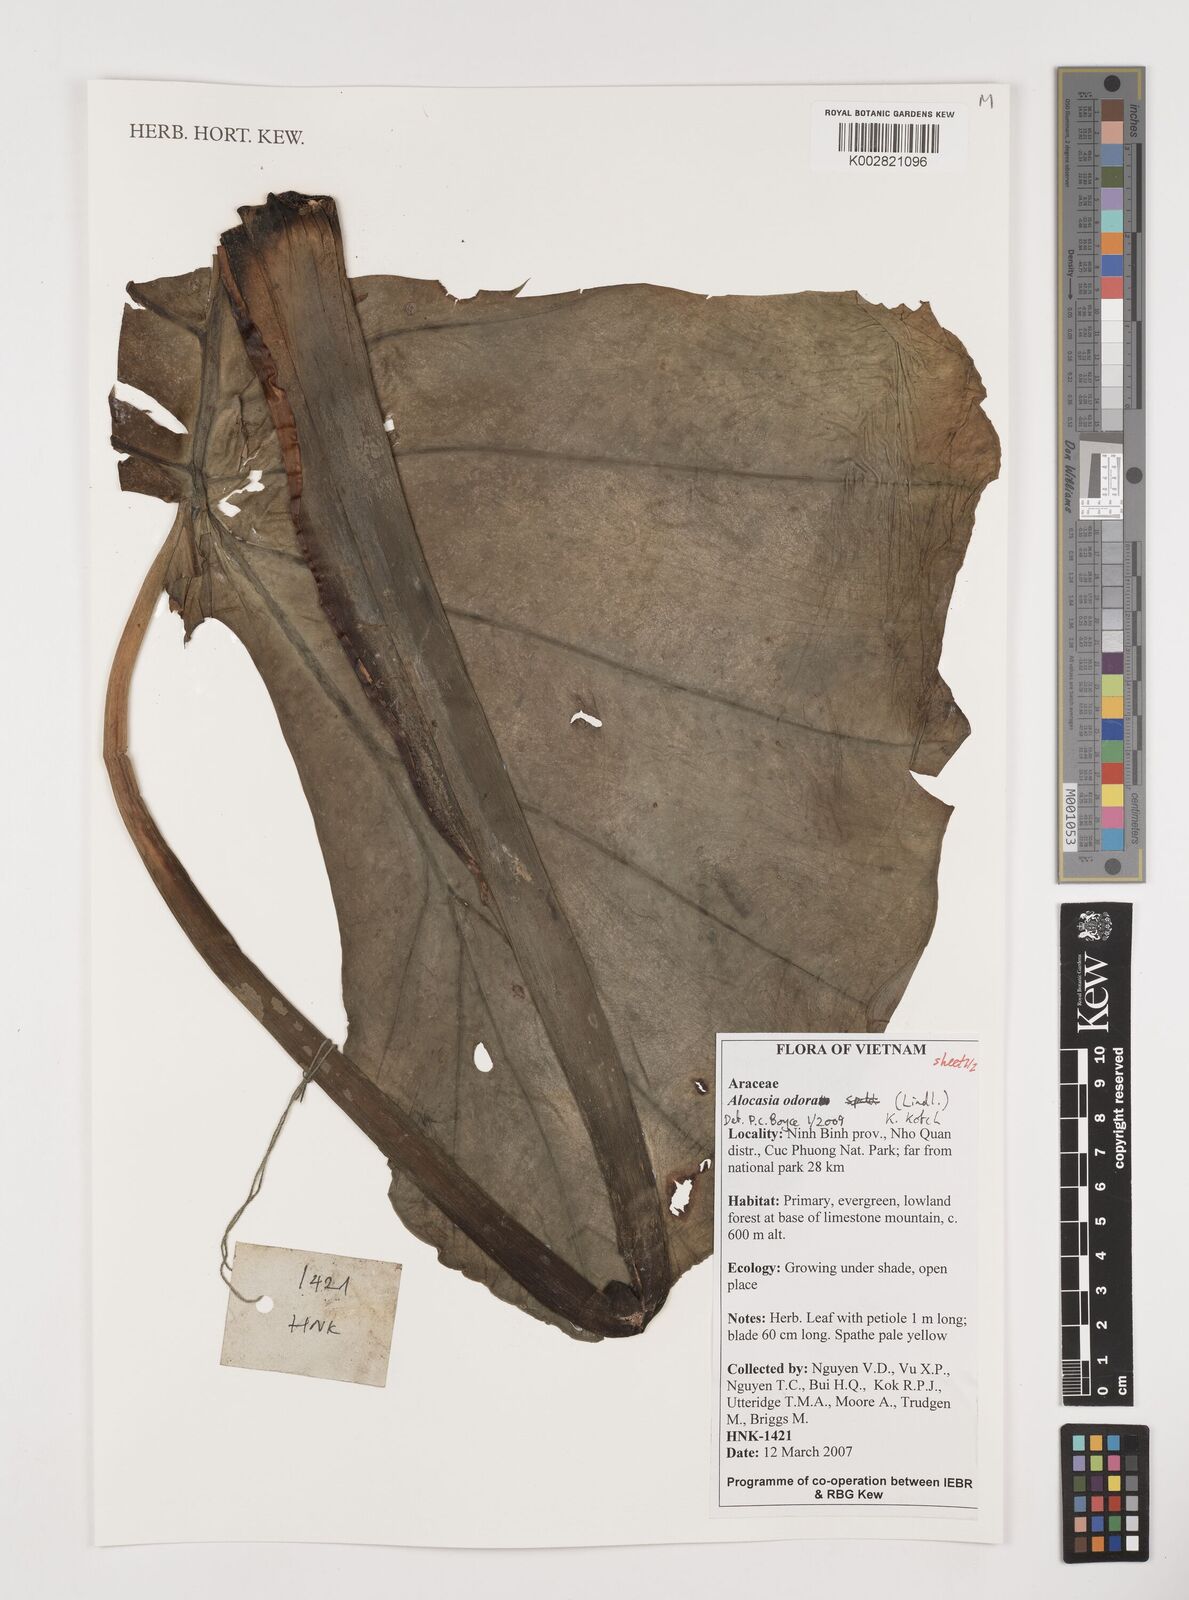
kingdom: Plantae
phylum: Tracheophyta
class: Liliopsida
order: Alismatales
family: Araceae
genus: Alocasia
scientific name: Alocasia odora
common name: Asian taro
